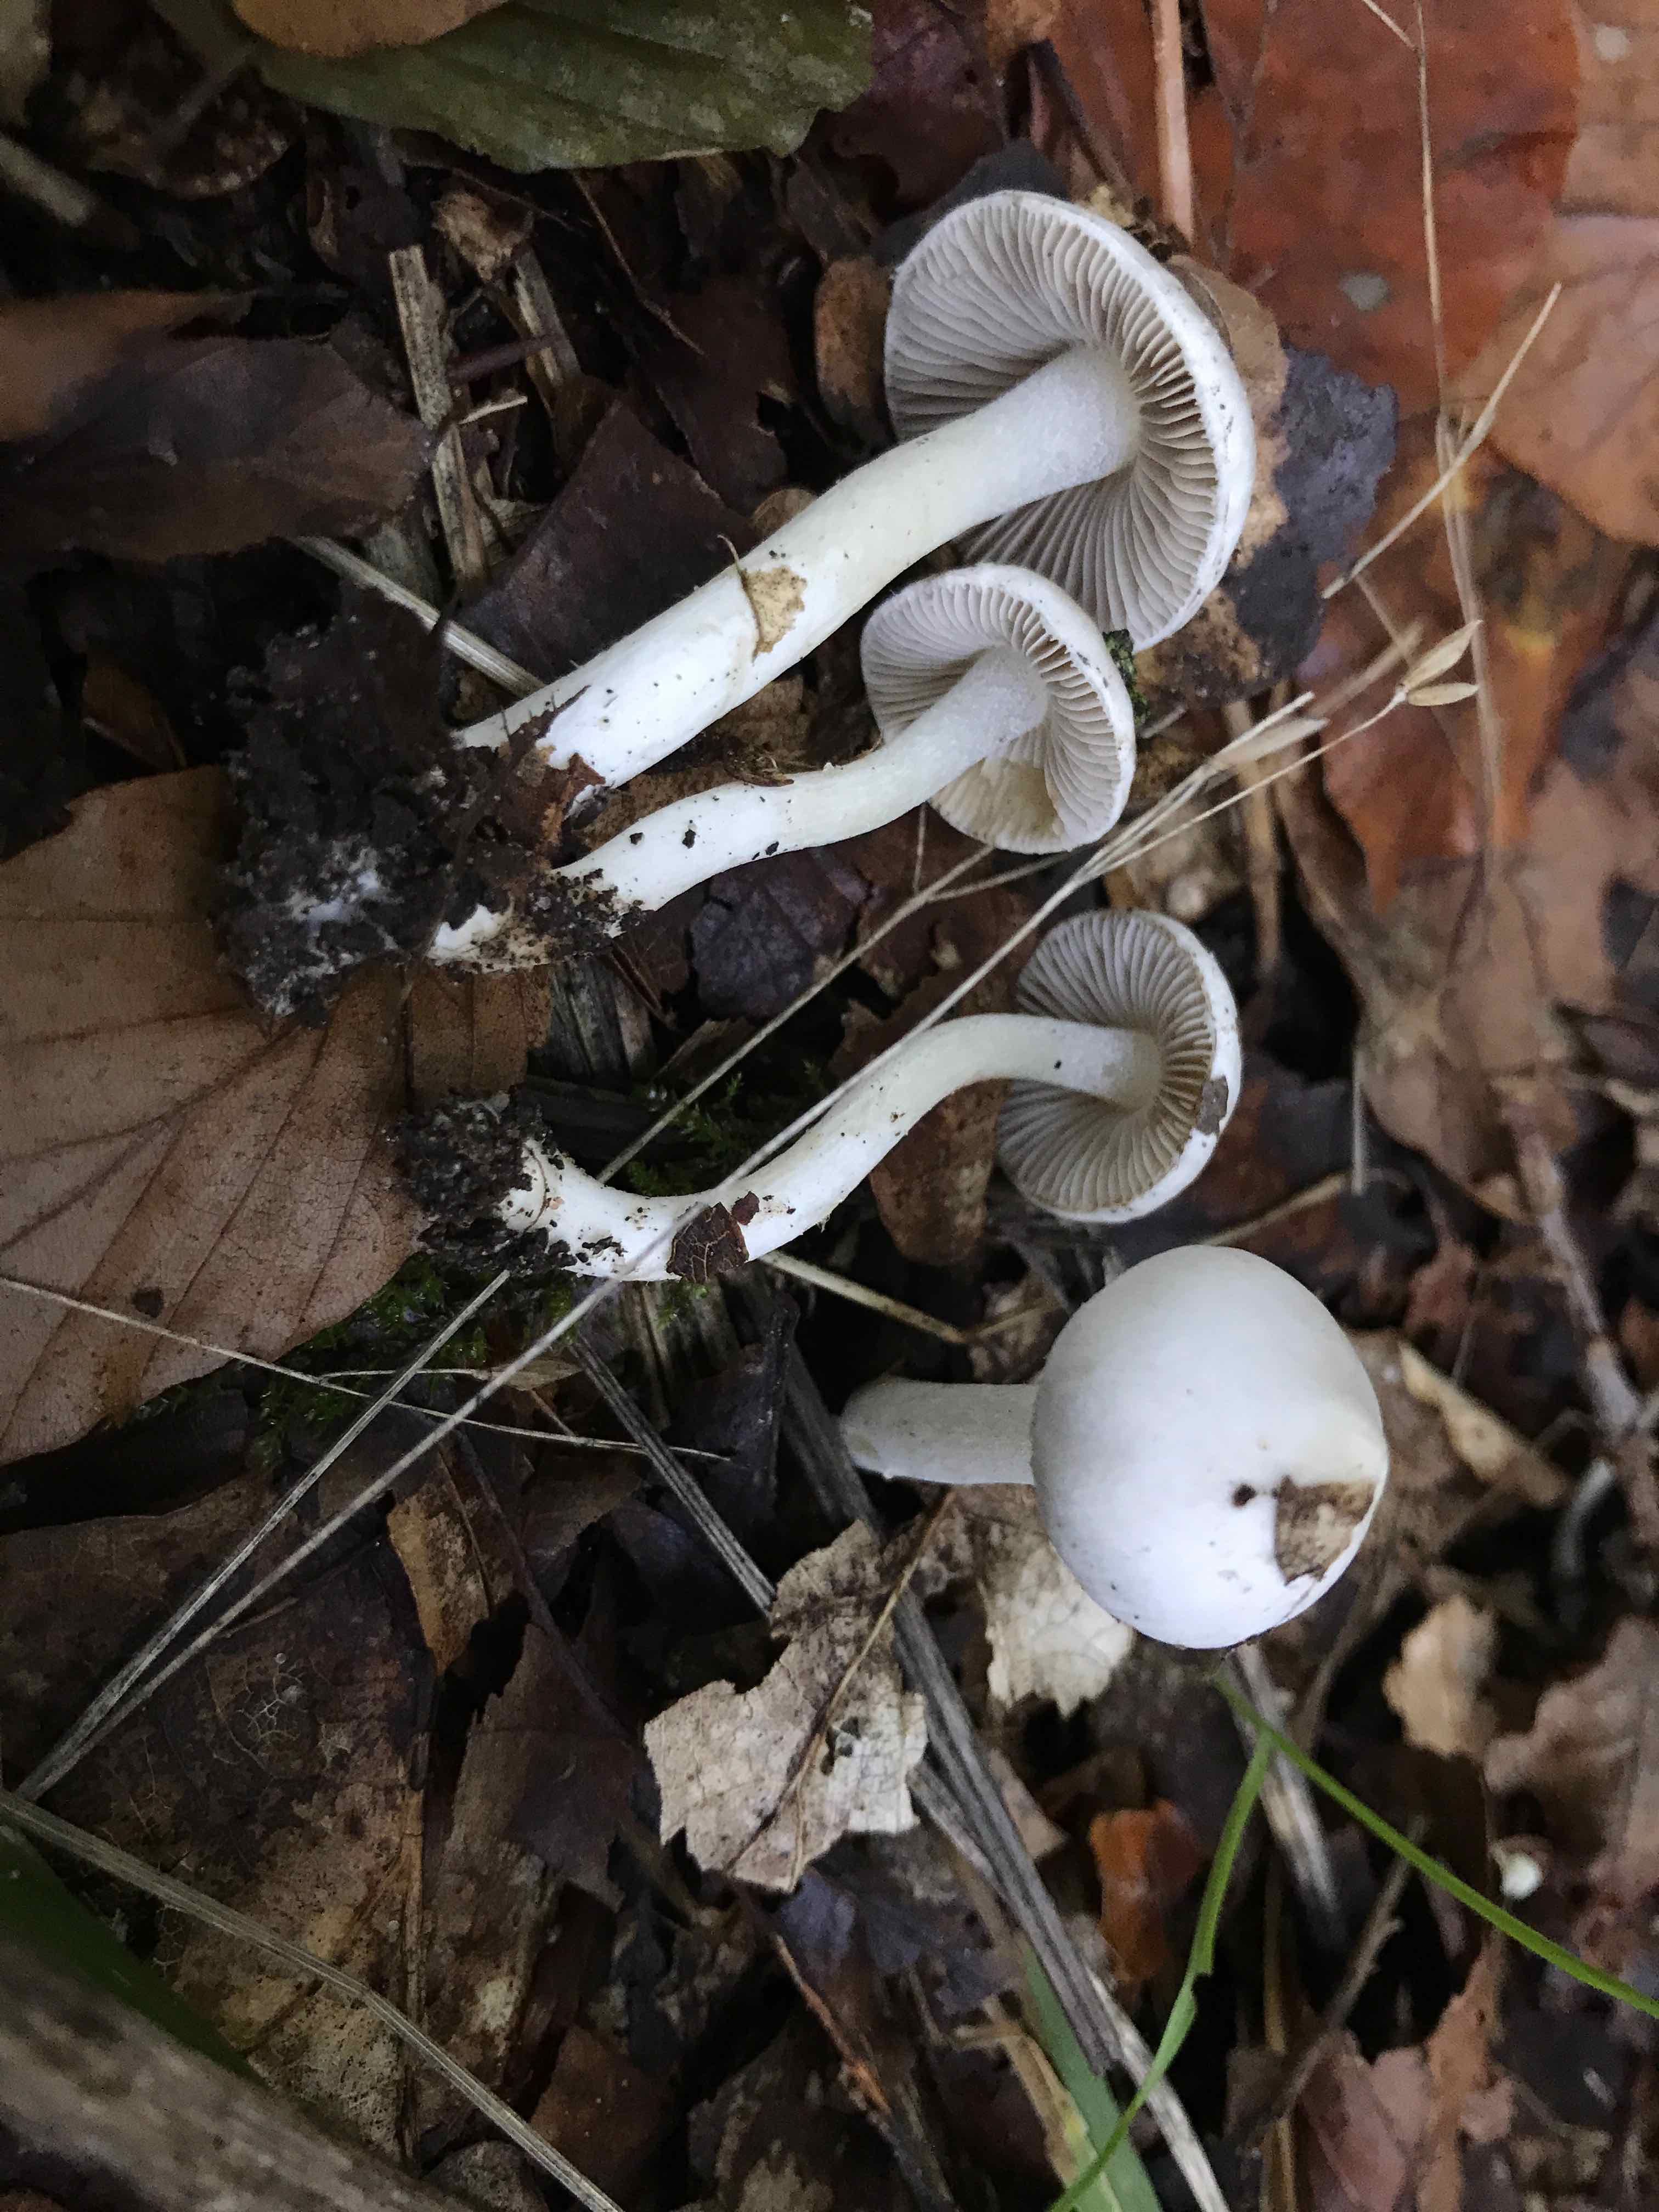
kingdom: Fungi
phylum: Basidiomycota
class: Agaricomycetes
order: Agaricales
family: Inocybaceae
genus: Inocybe
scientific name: Inocybe
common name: almindelig trævlhat
